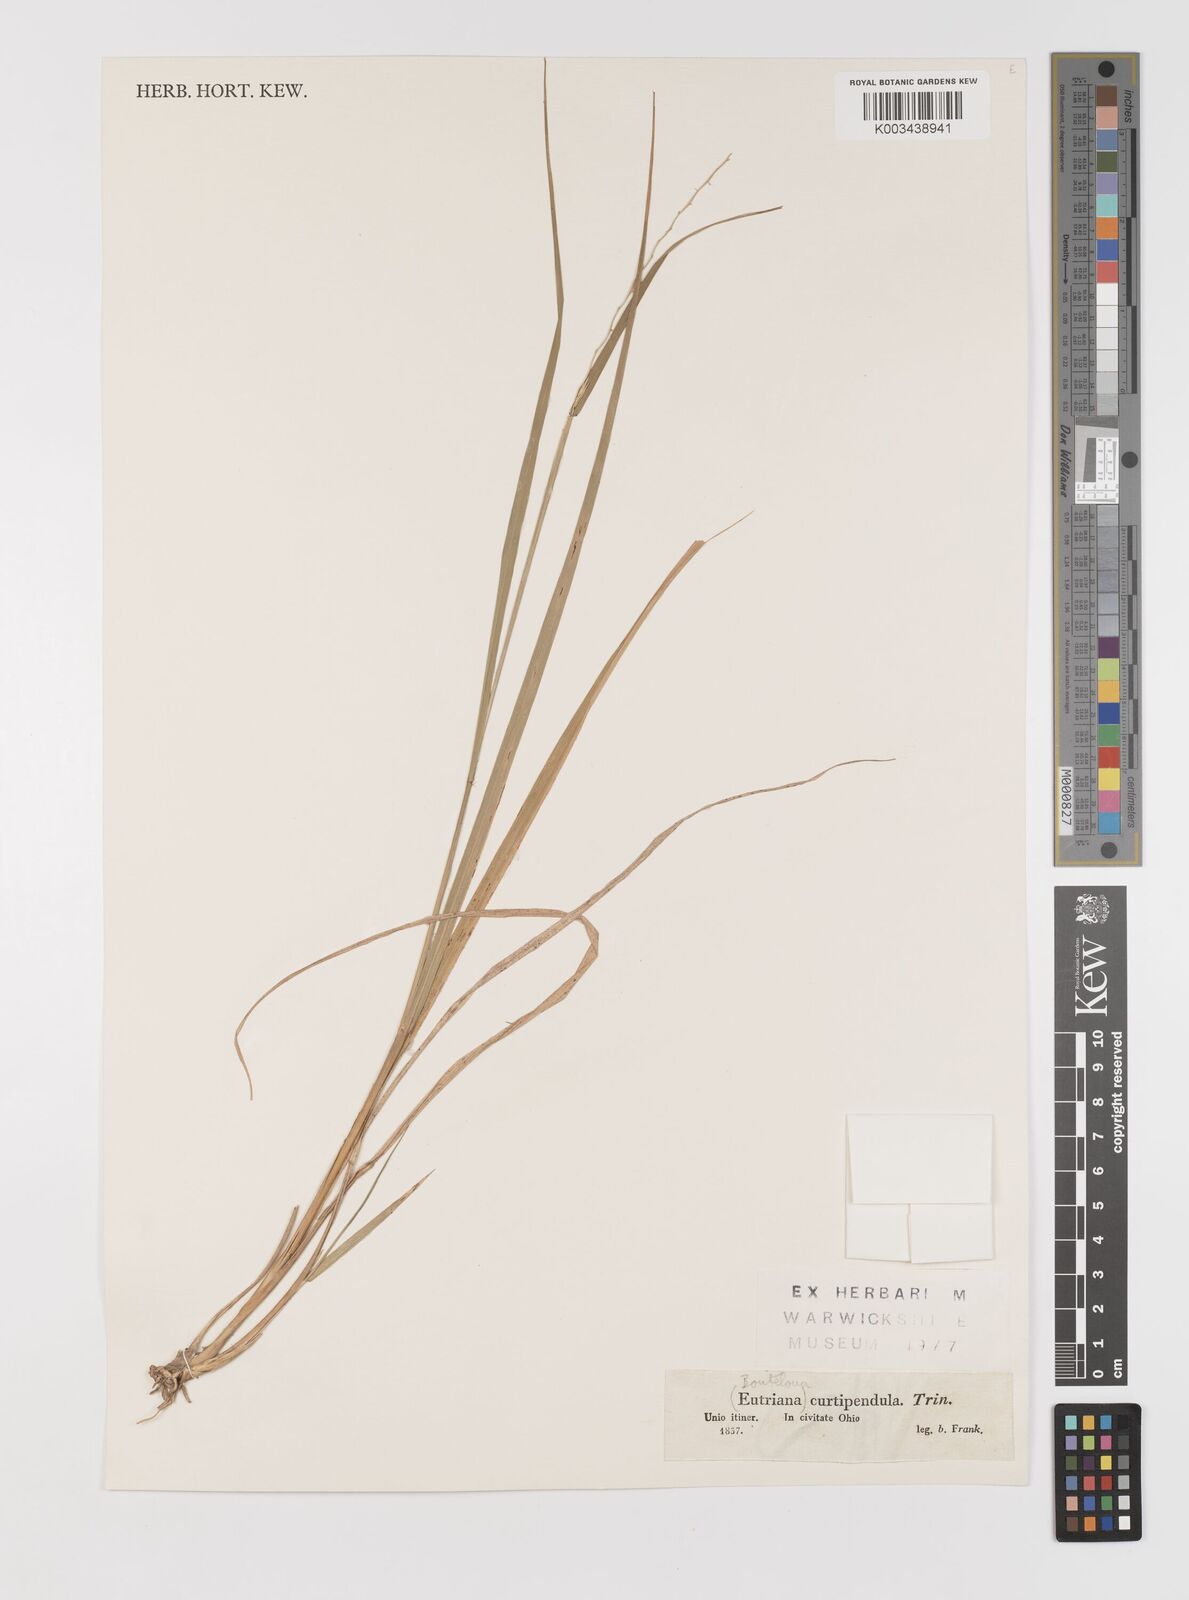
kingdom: Plantae
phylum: Tracheophyta
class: Liliopsida
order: Poales
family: Poaceae
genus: Bouteloua
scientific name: Bouteloua curtipendula
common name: Side-oats grama
